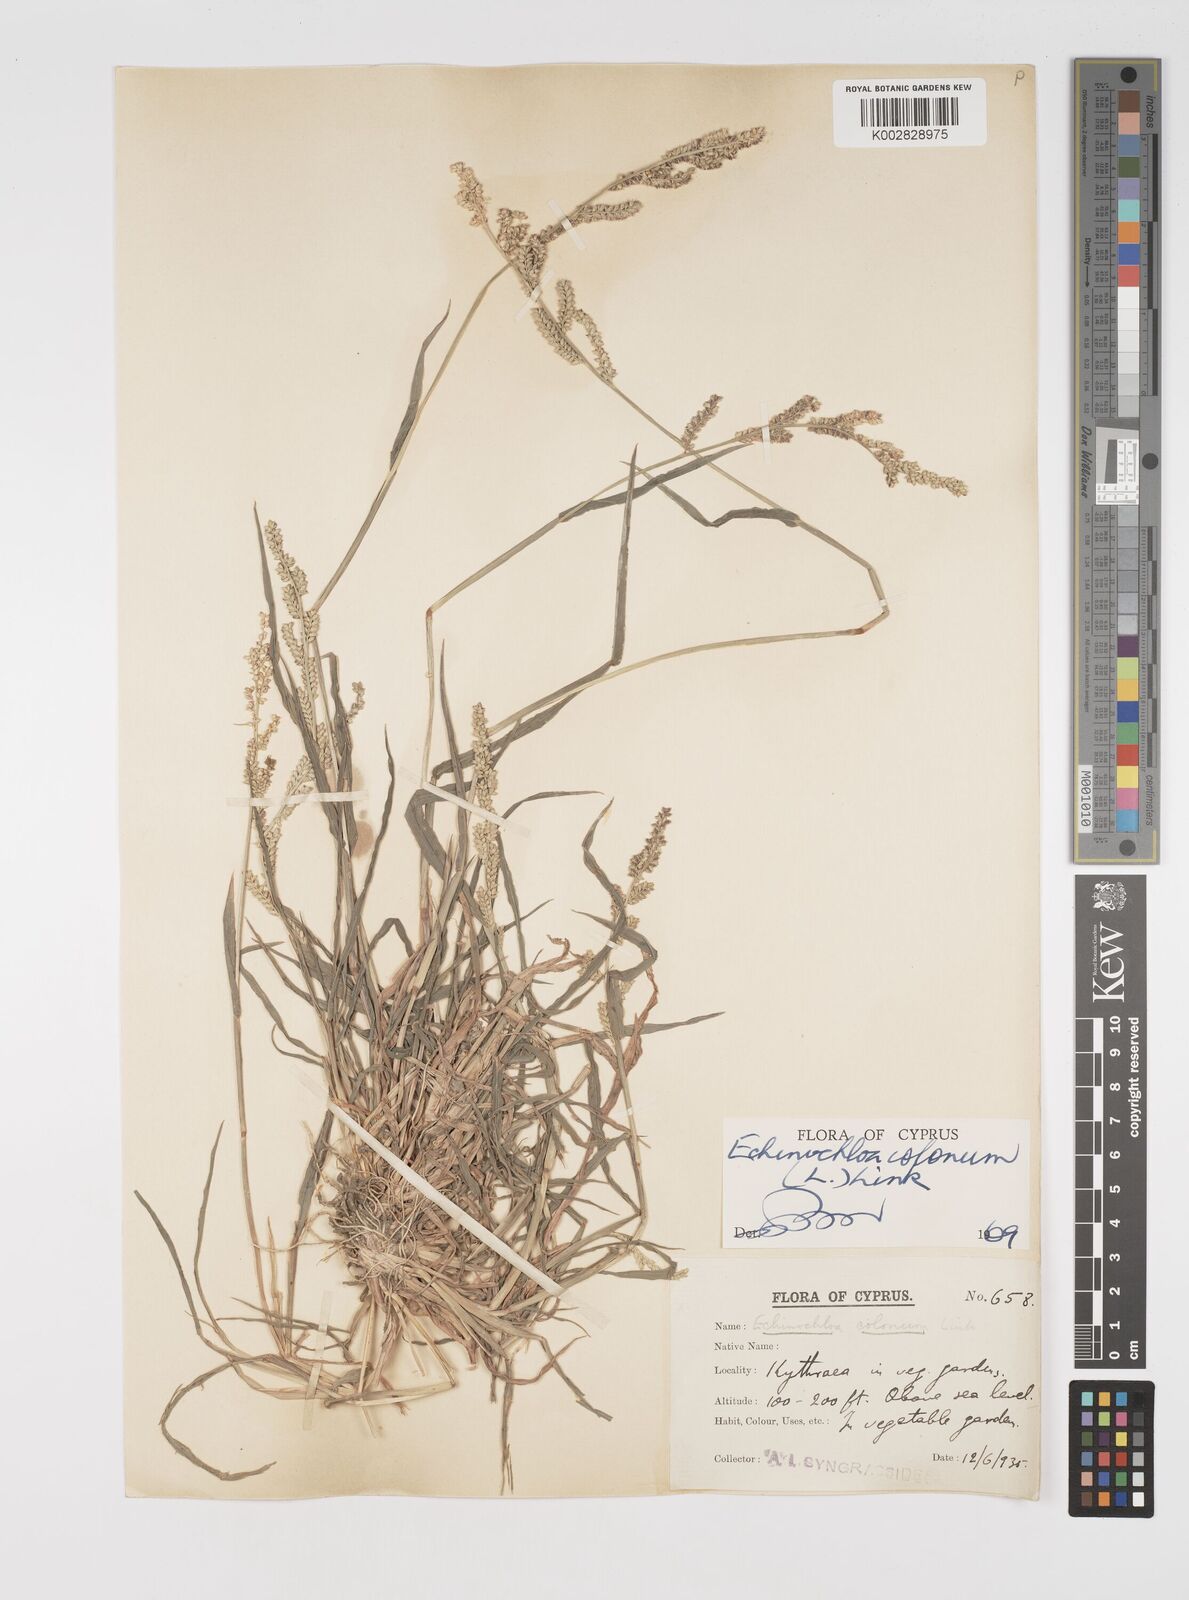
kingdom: Plantae
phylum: Tracheophyta
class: Liliopsida
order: Poales
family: Poaceae
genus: Echinochloa
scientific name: Echinochloa colonum
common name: Jungle rice
